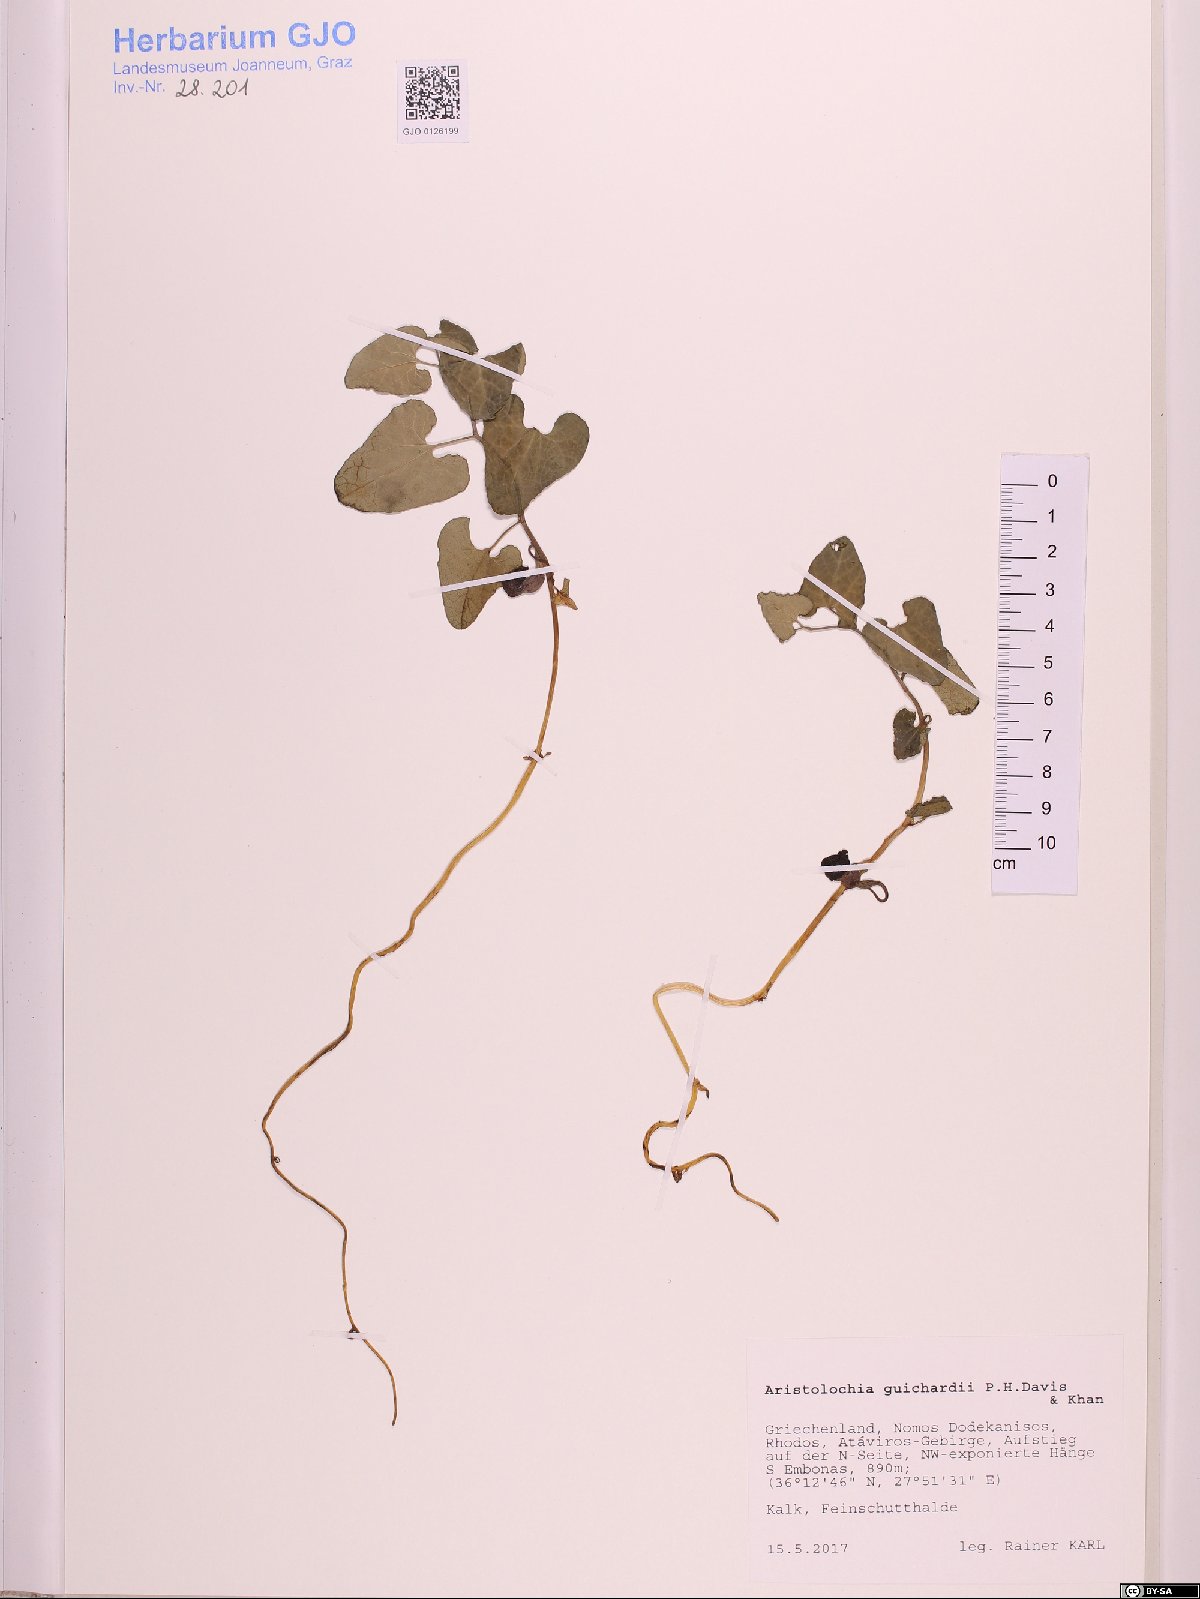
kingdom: Plantae
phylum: Tracheophyta
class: Magnoliopsida
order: Piperales
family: Aristolochiaceae
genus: Aristolochia
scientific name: Aristolochia guichardii
